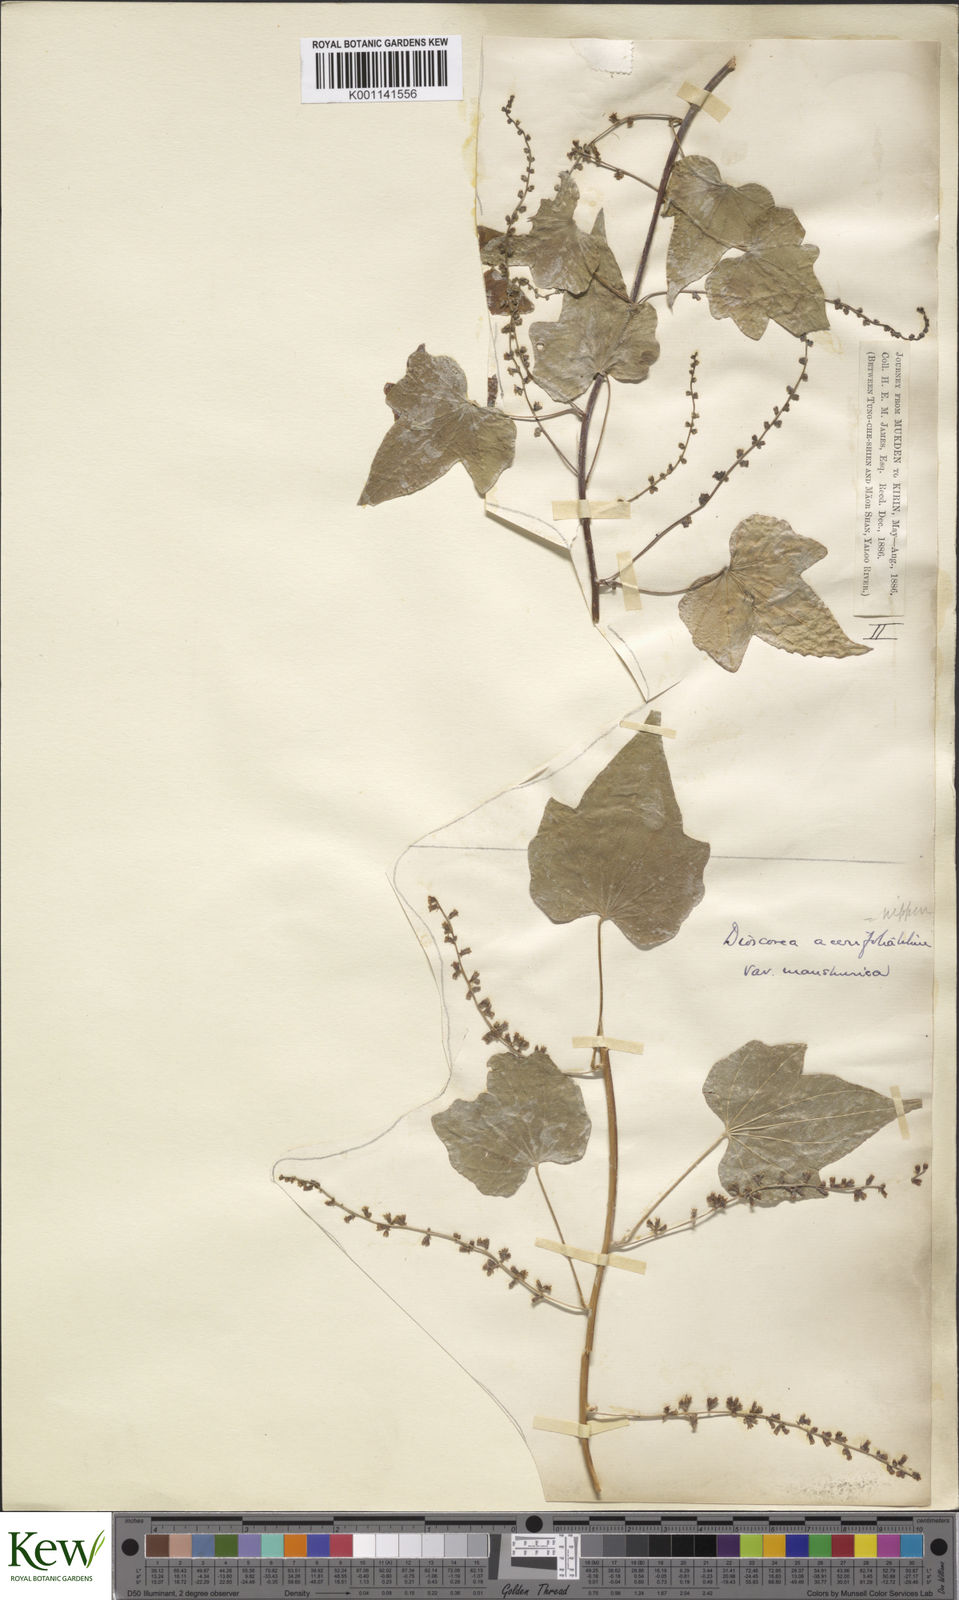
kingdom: Plantae
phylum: Tracheophyta
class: Liliopsida
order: Dioscoreales
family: Dioscoreaceae
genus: Dioscorea
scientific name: Dioscorea nipponica
